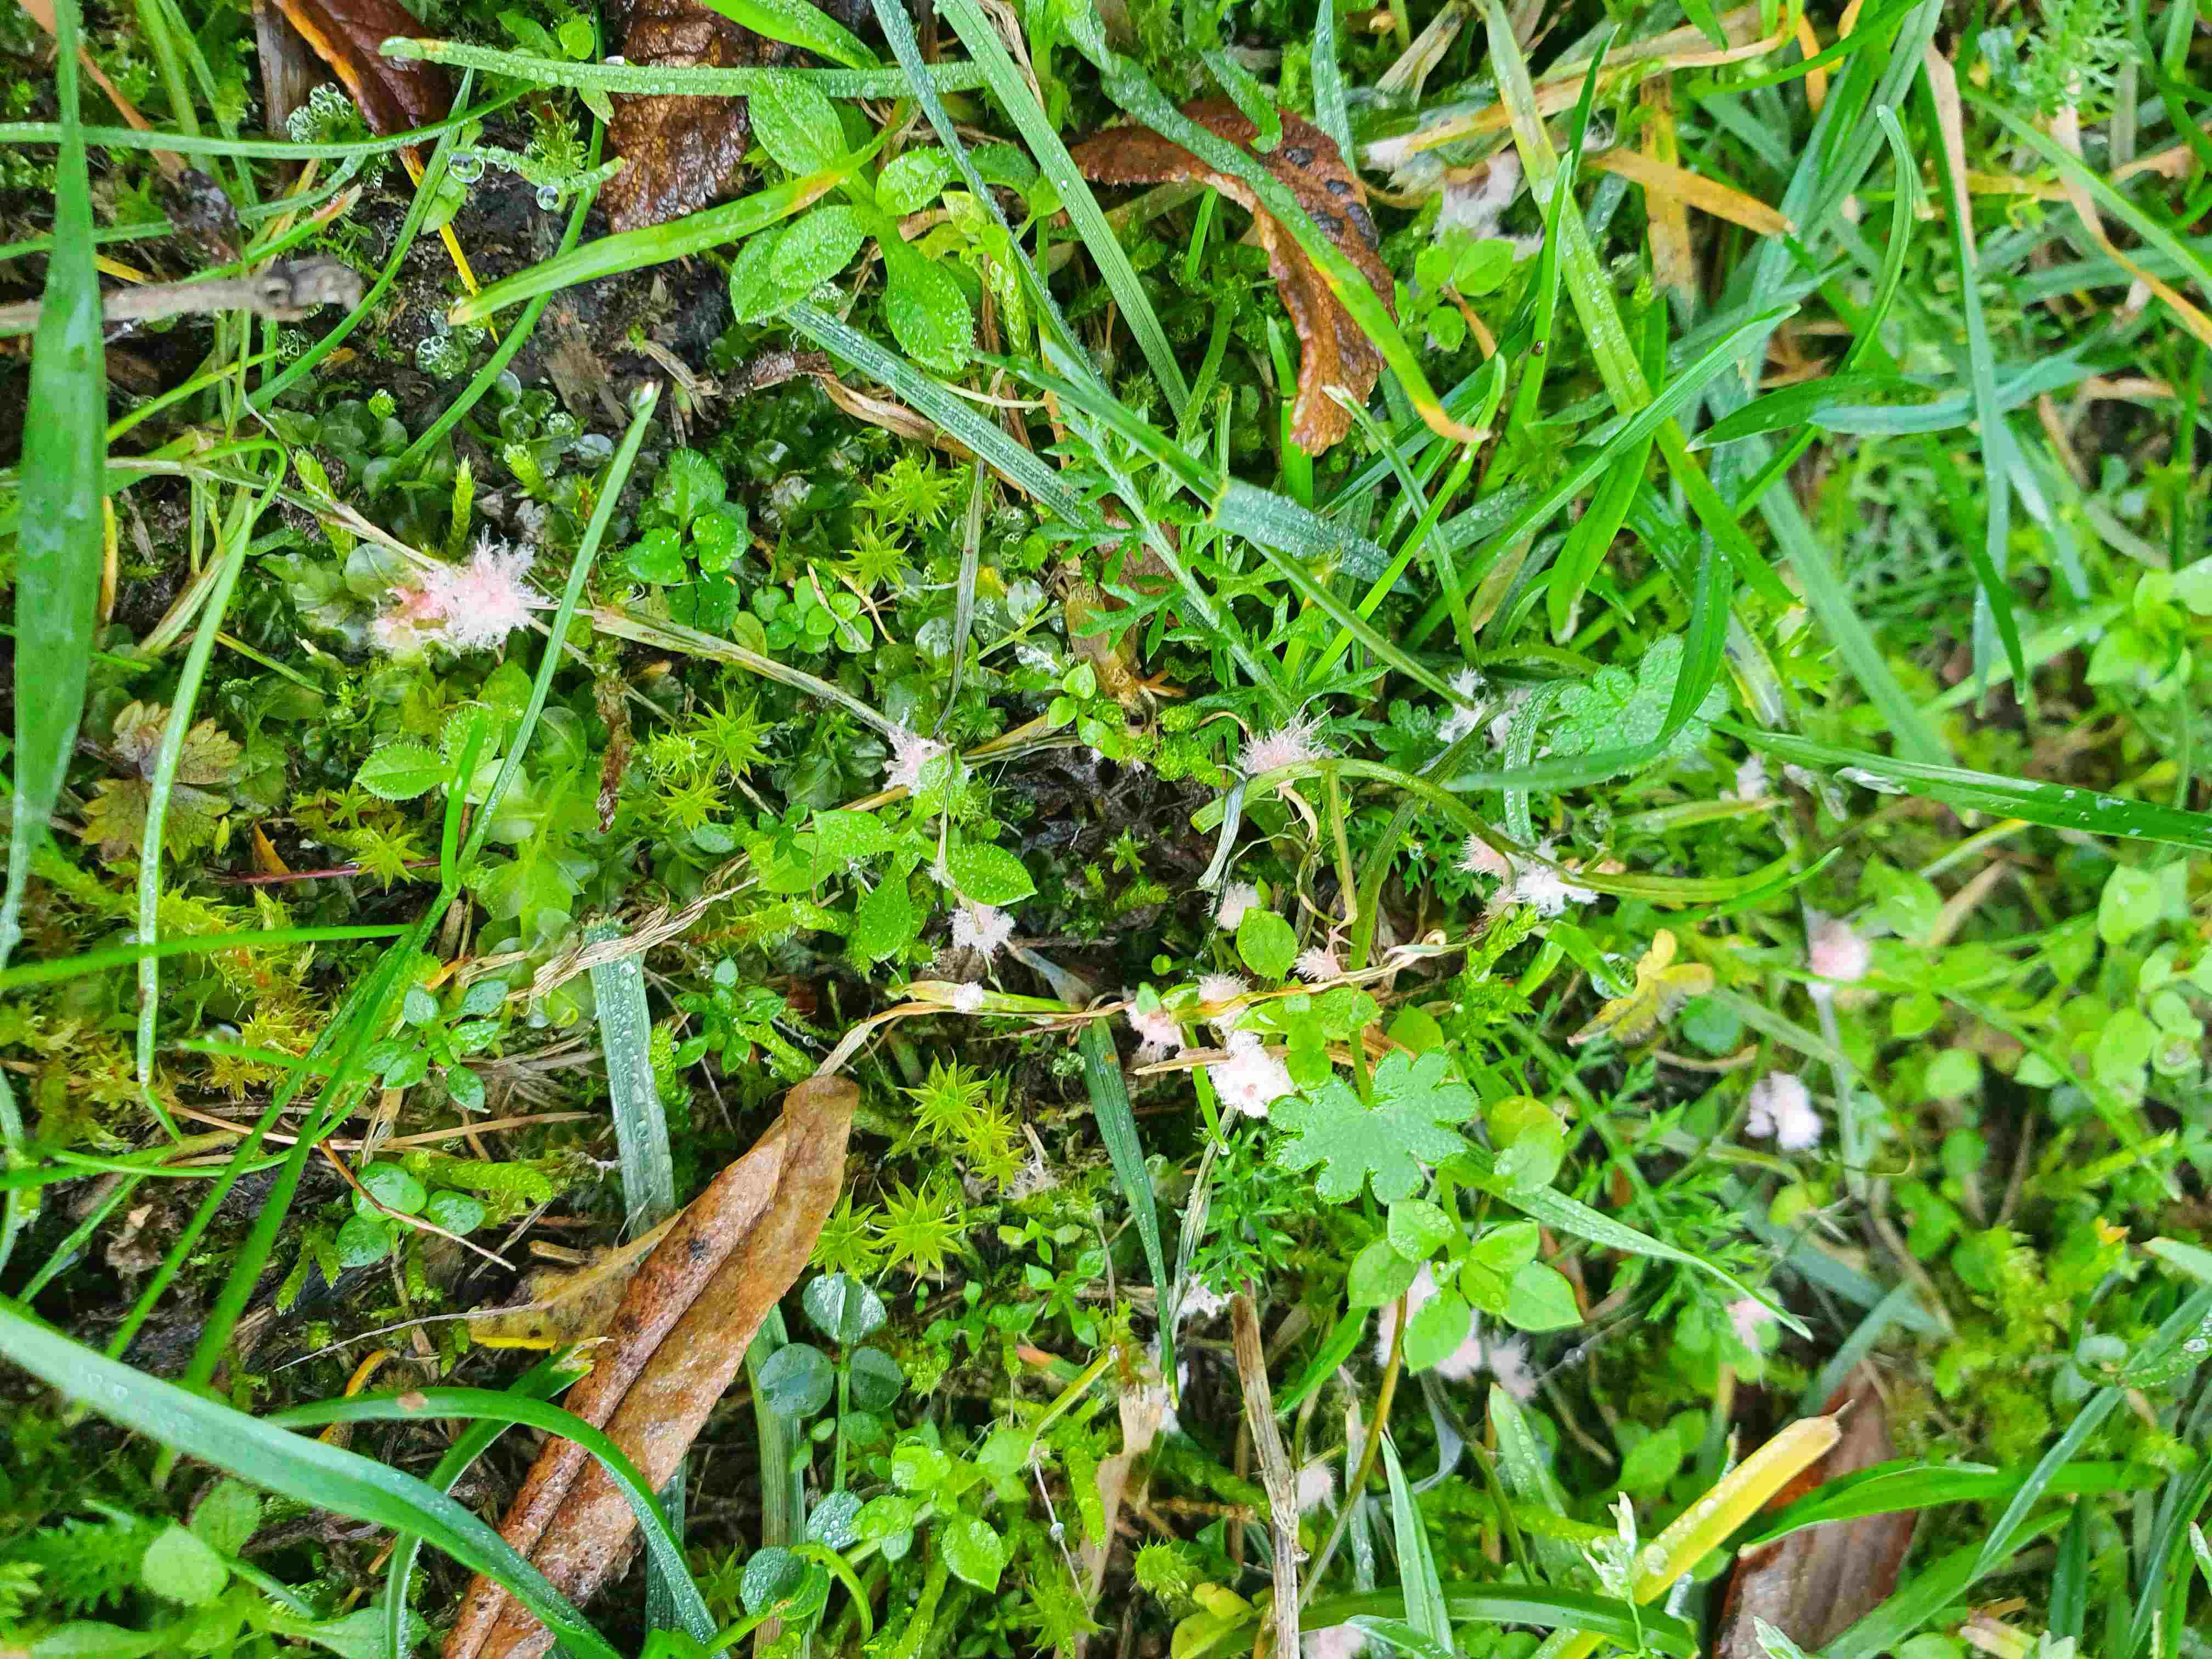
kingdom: Fungi
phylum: Basidiomycota
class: Agaricomycetes
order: Corticiales
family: Corticiaceae
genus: Laetisaria
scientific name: Laetisaria
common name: rødtråd
